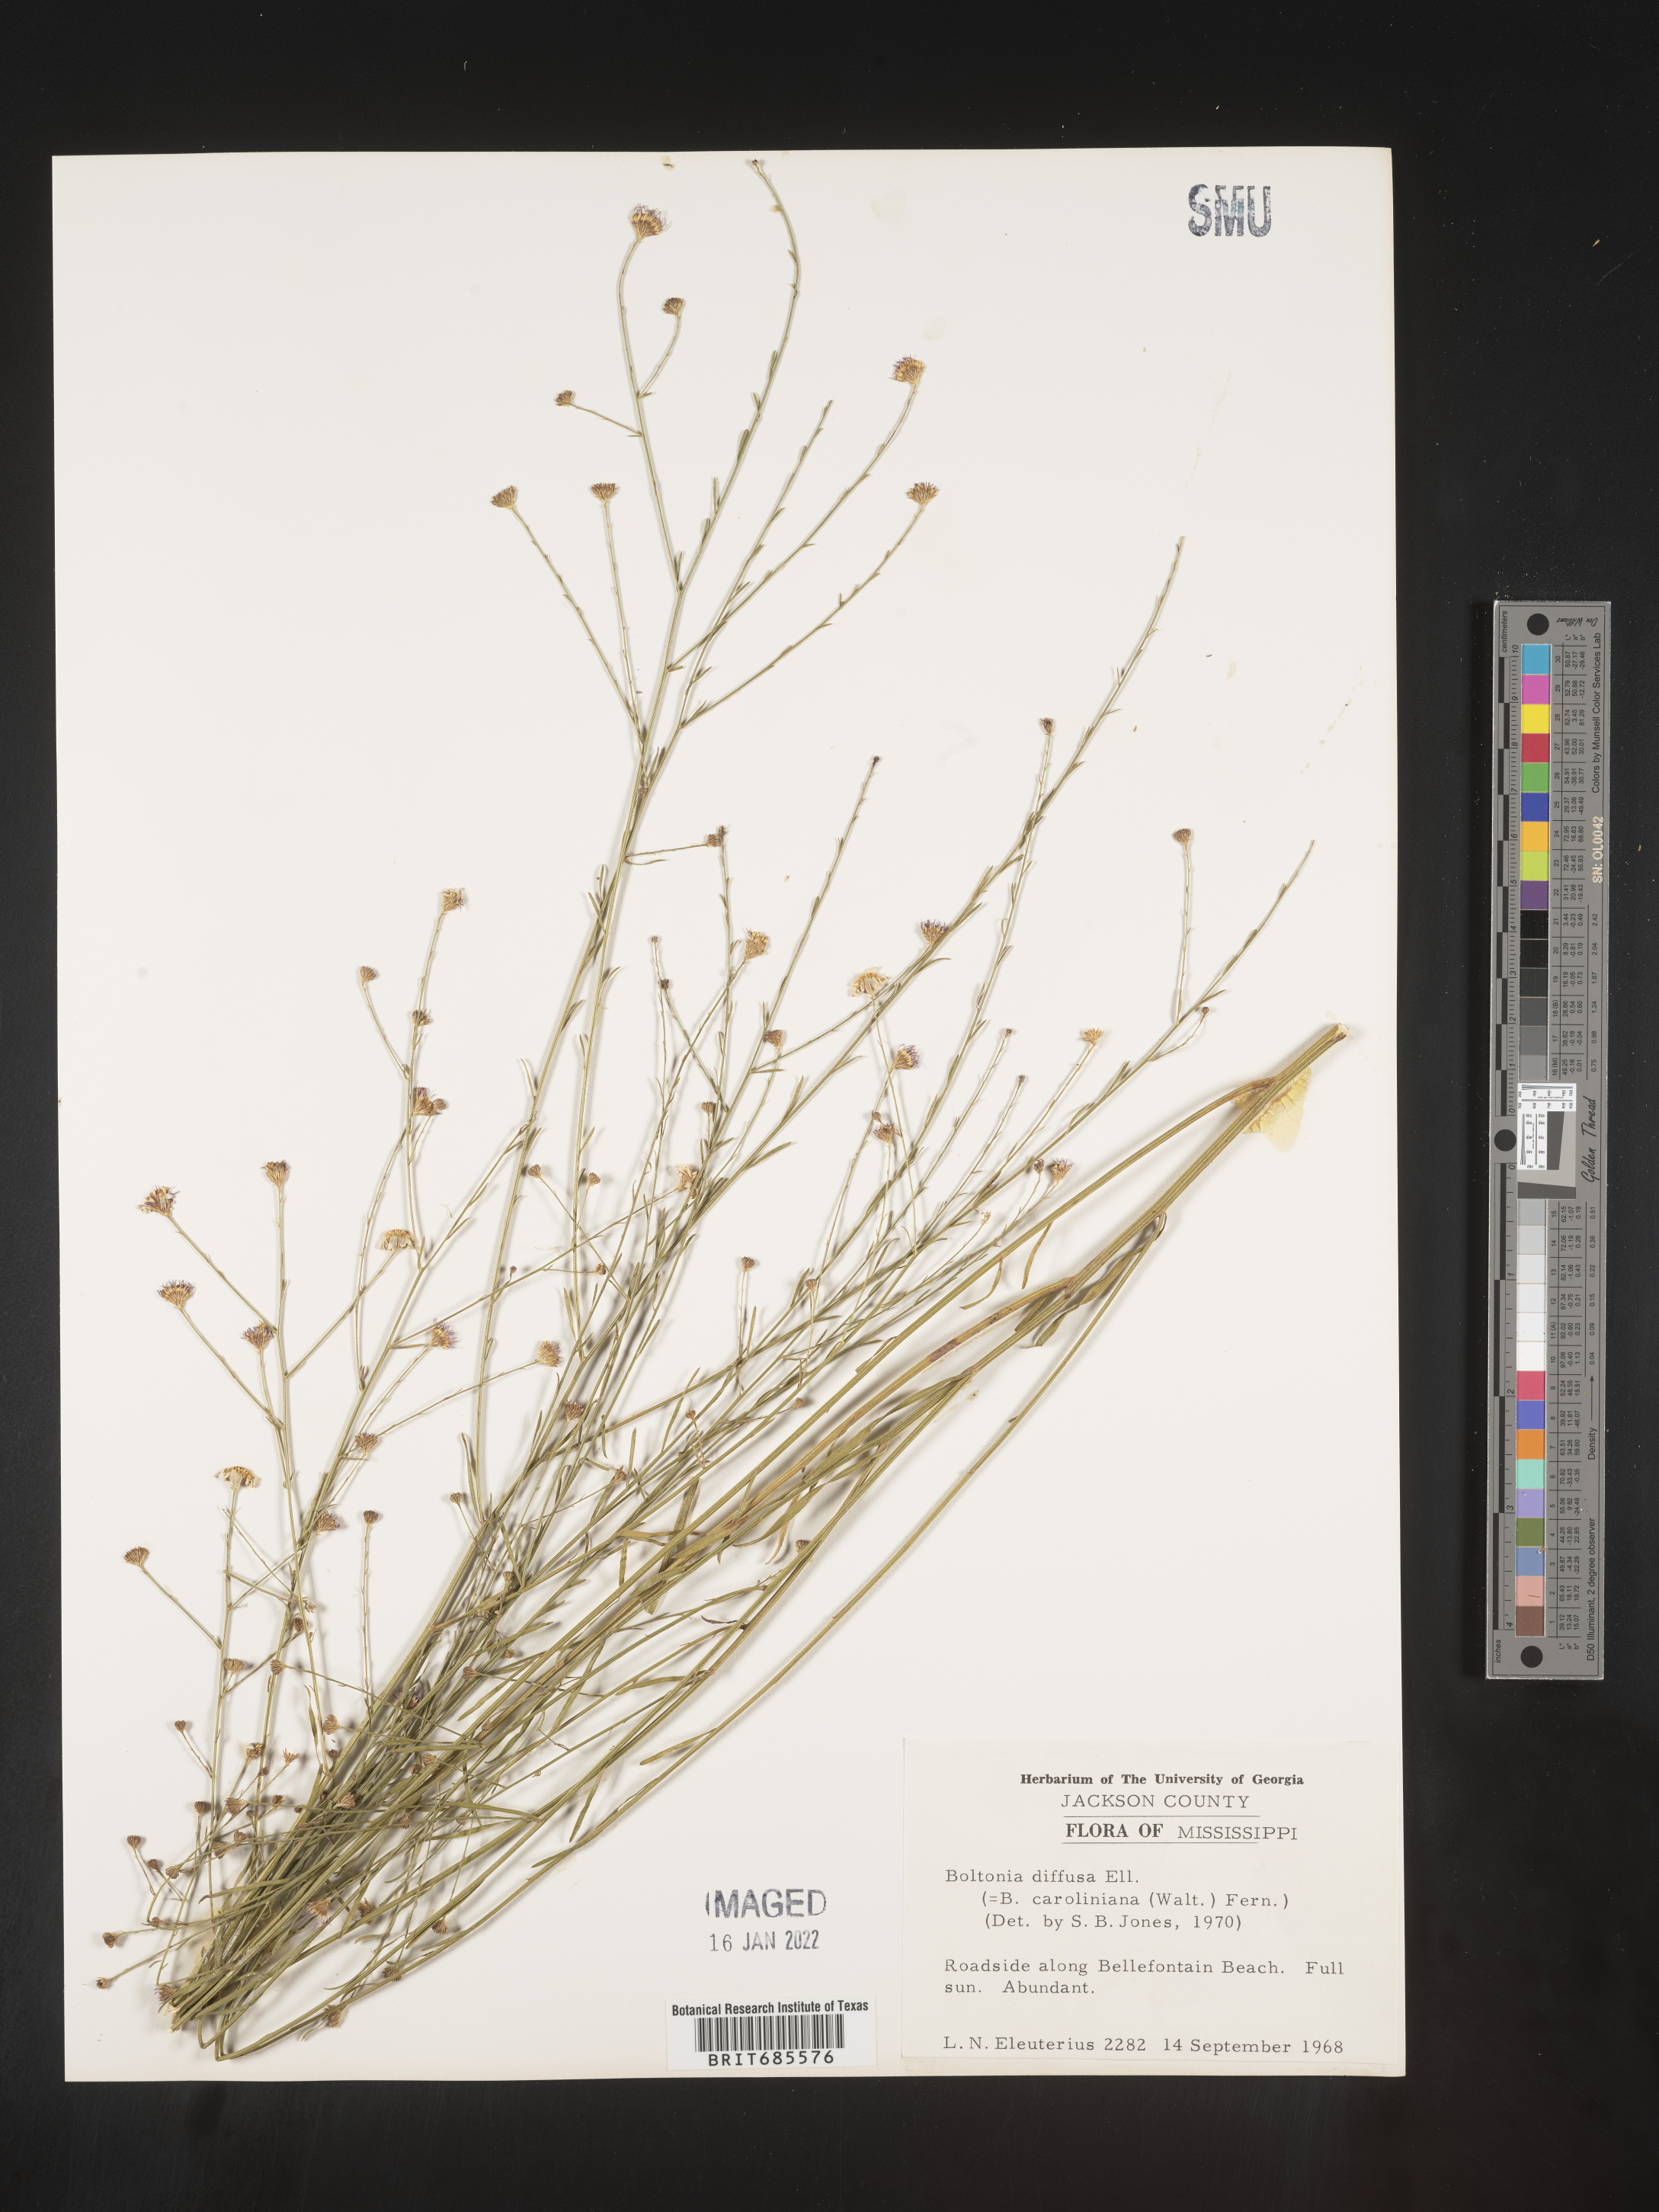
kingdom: Plantae
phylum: Tracheophyta
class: Magnoliopsida
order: Asterales
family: Asteraceae
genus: Boltonia
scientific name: Boltonia diffusa
